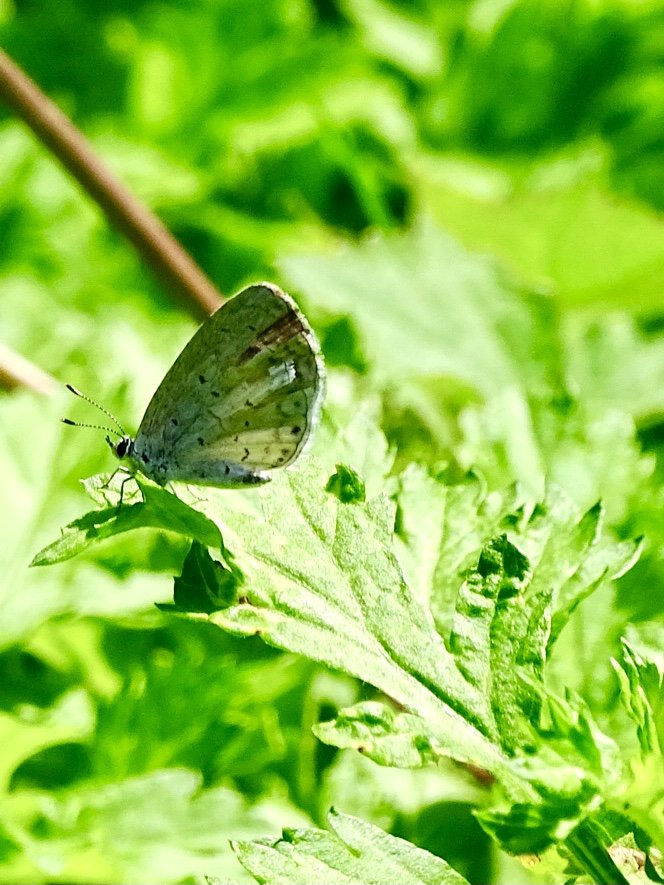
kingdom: Animalia
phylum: Arthropoda
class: Insecta
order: Lepidoptera
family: Lycaenidae
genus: Cyaniris
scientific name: Cyaniris neglecta
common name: Summer Azure
